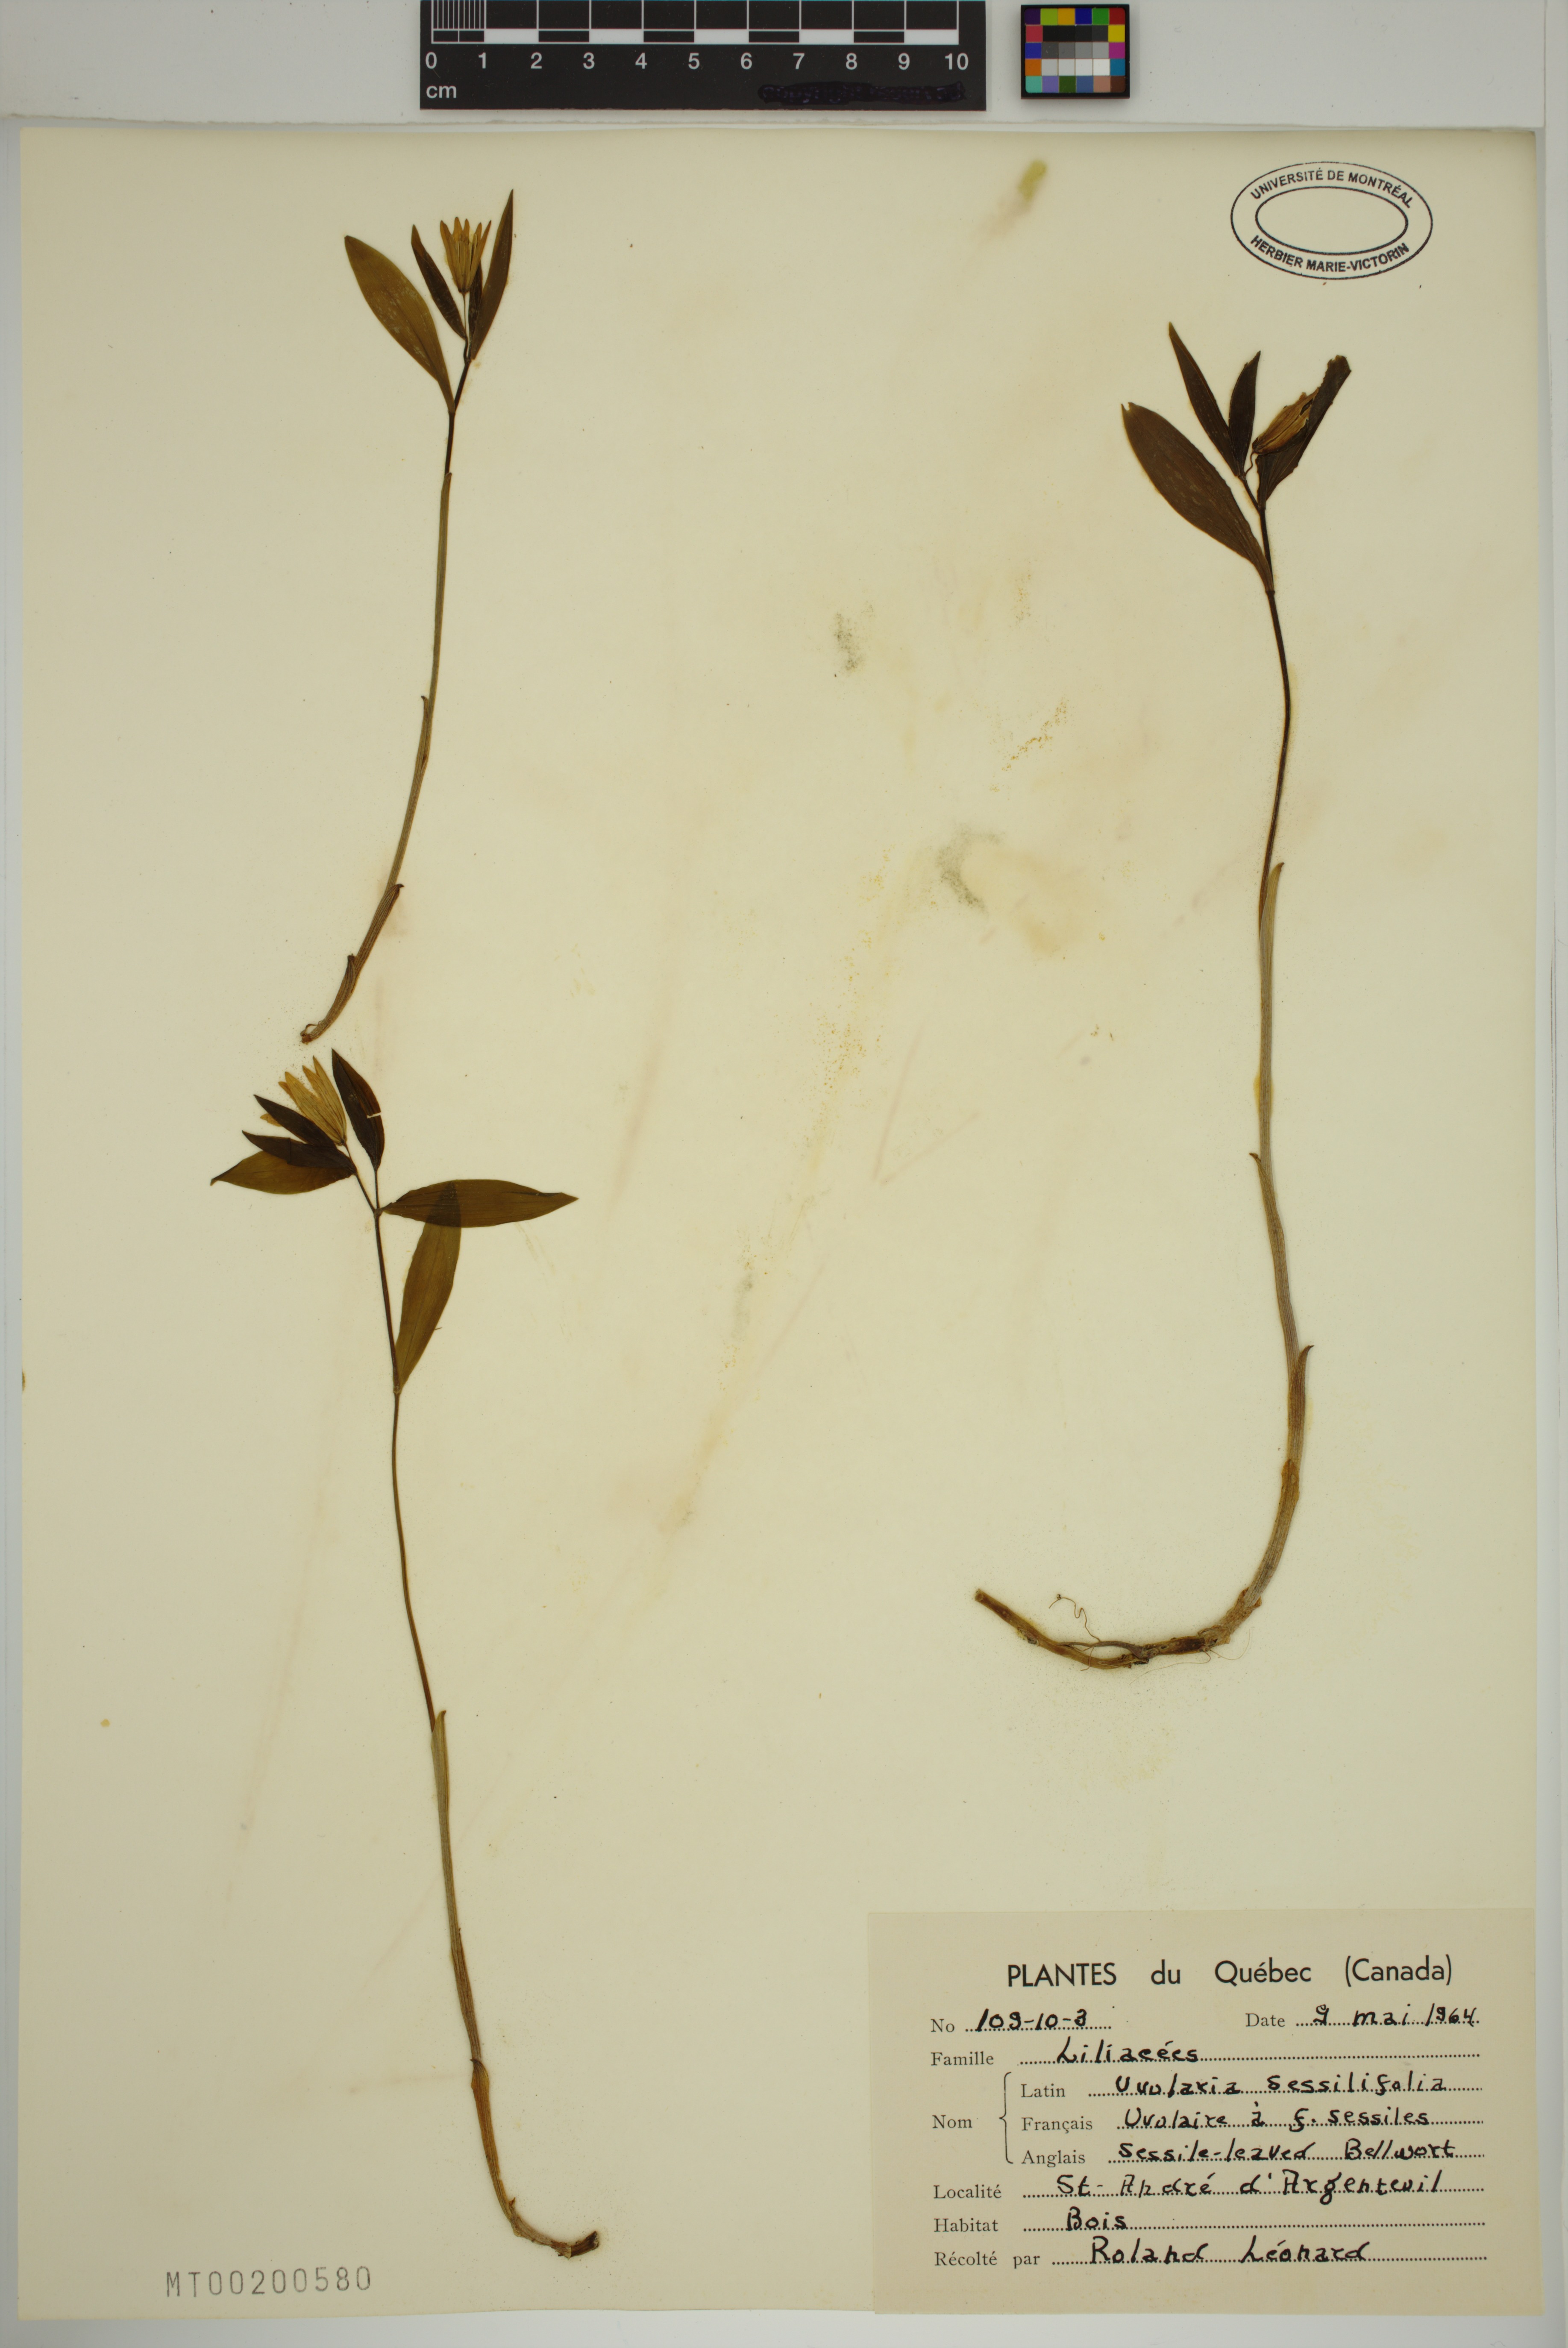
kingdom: Plantae
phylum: Tracheophyta
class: Liliopsida
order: Liliales
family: Colchicaceae
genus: Uvularia
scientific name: Uvularia sessilifolia
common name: Straw-lily
